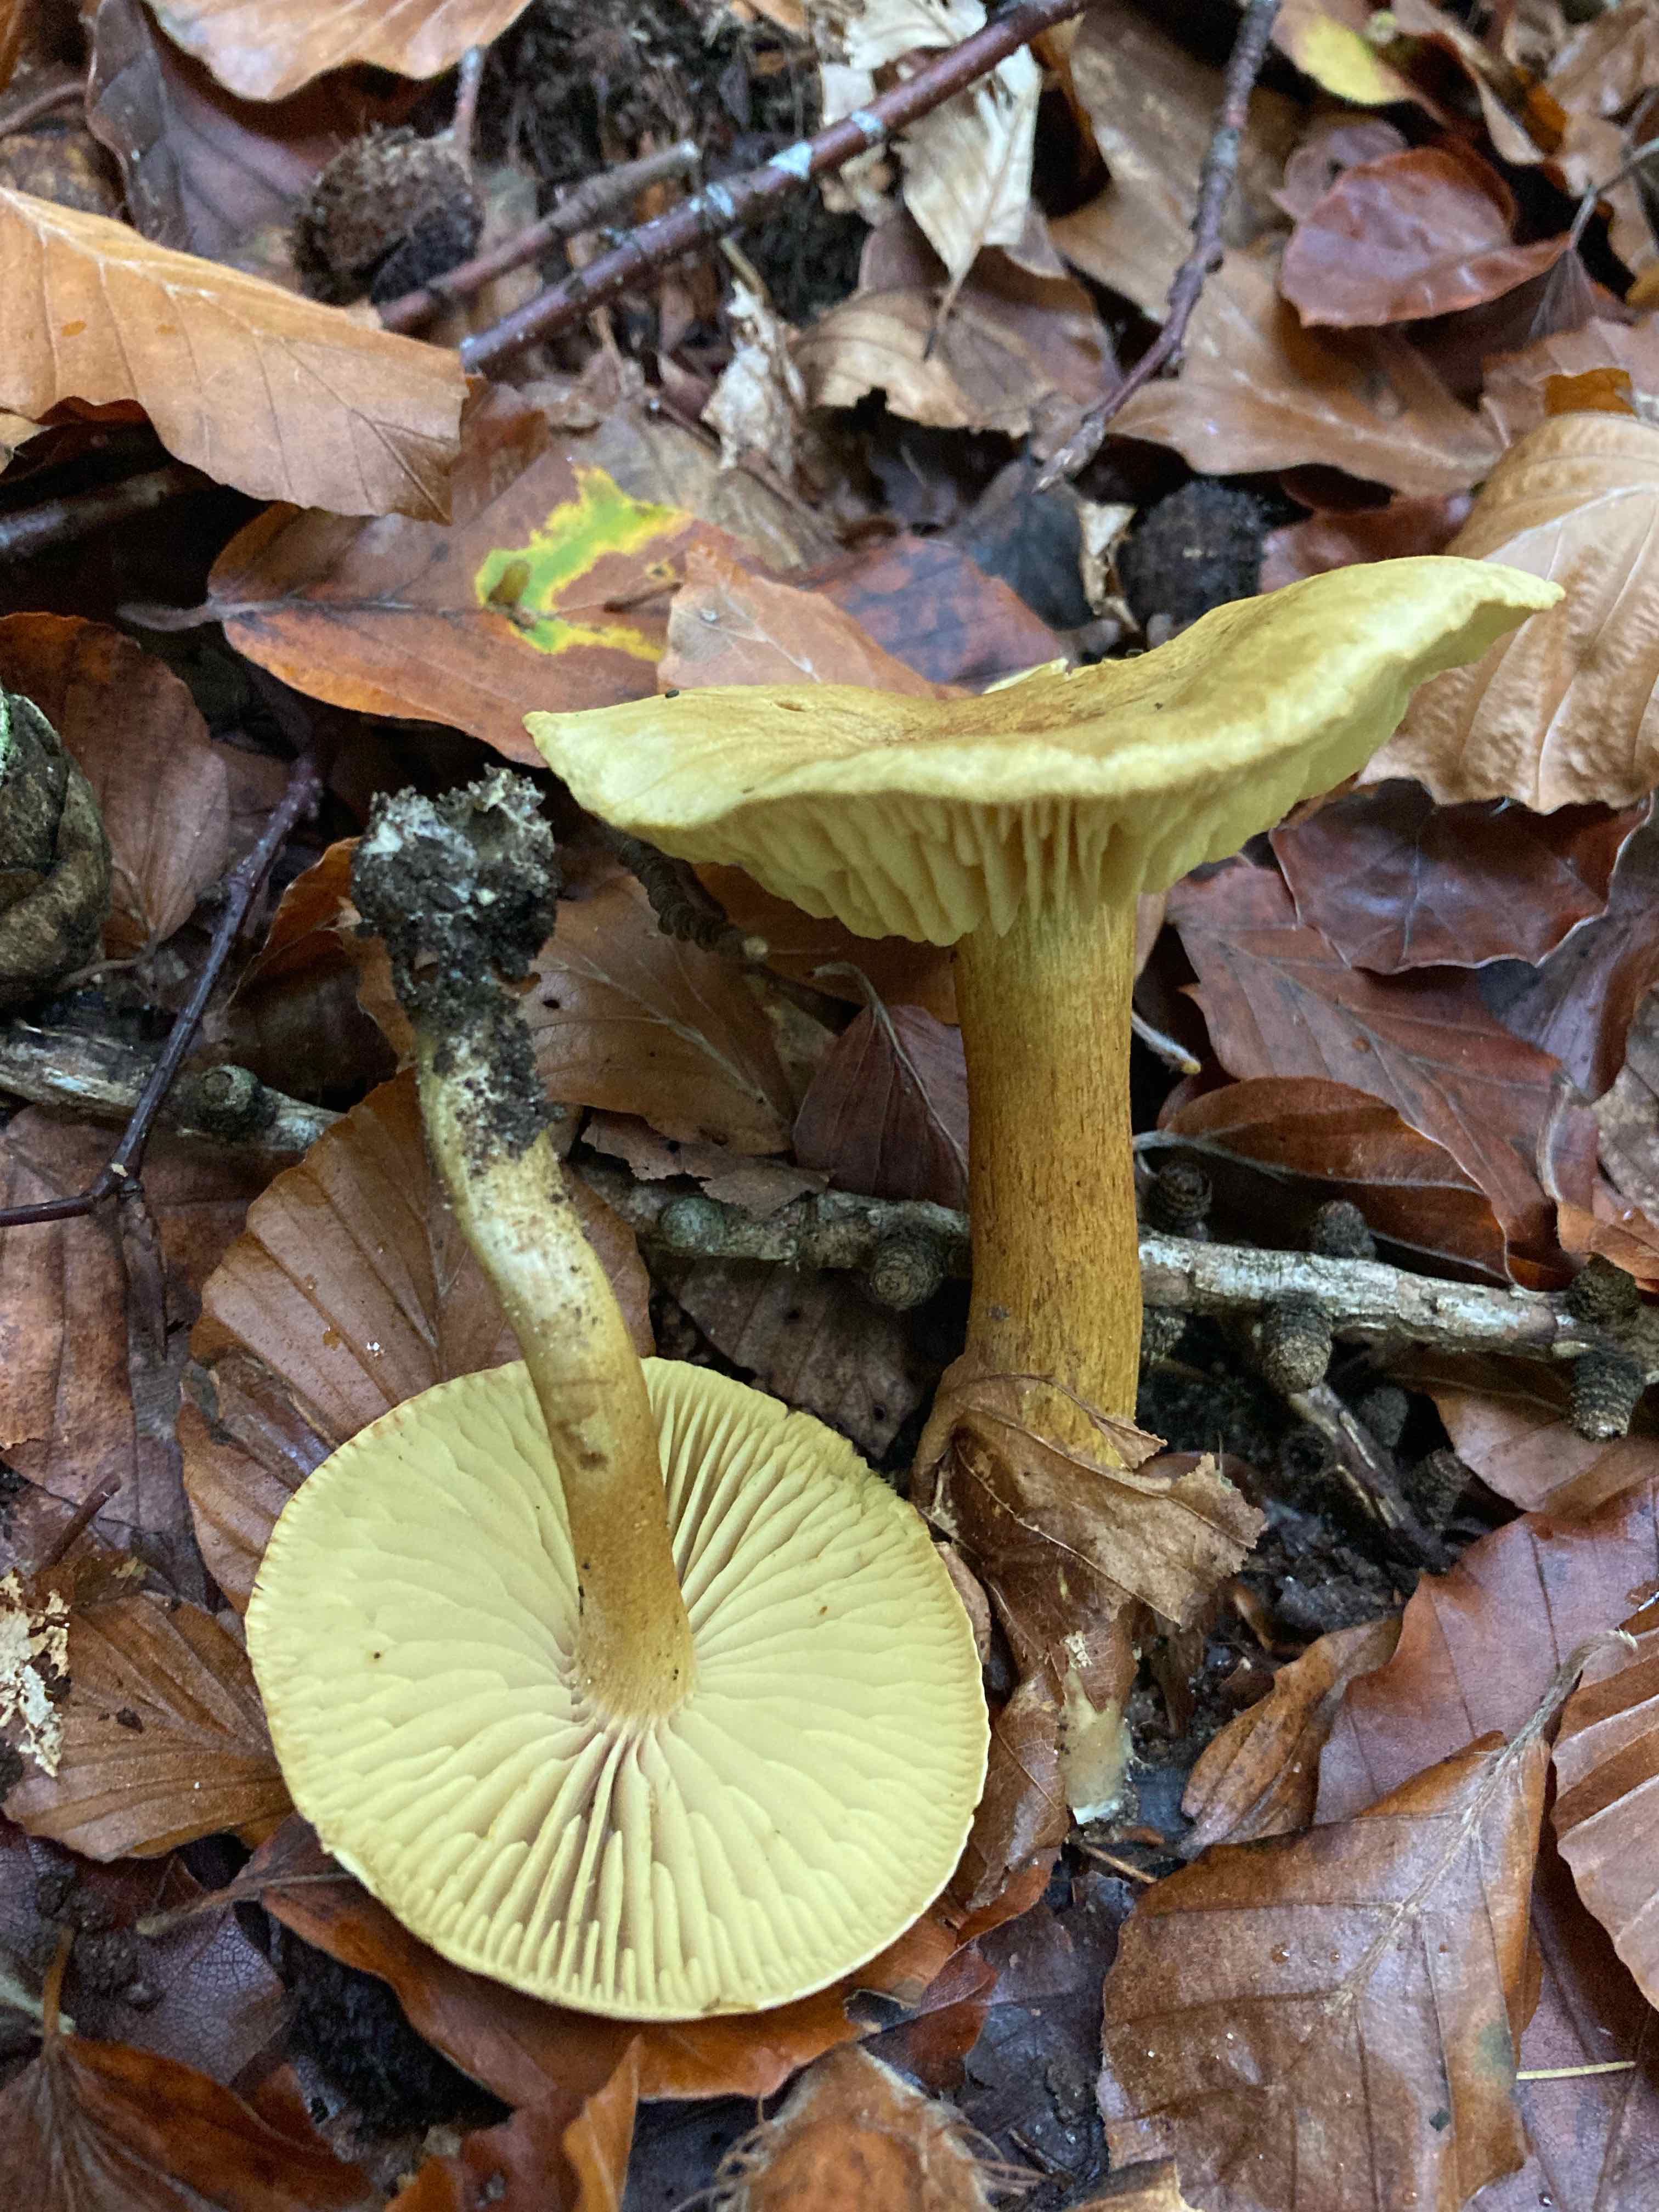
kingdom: Fungi
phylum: Basidiomycota
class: Agaricomycetes
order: Agaricales
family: Tricholomataceae
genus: Tricholoma
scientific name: Tricholoma sulphureum
